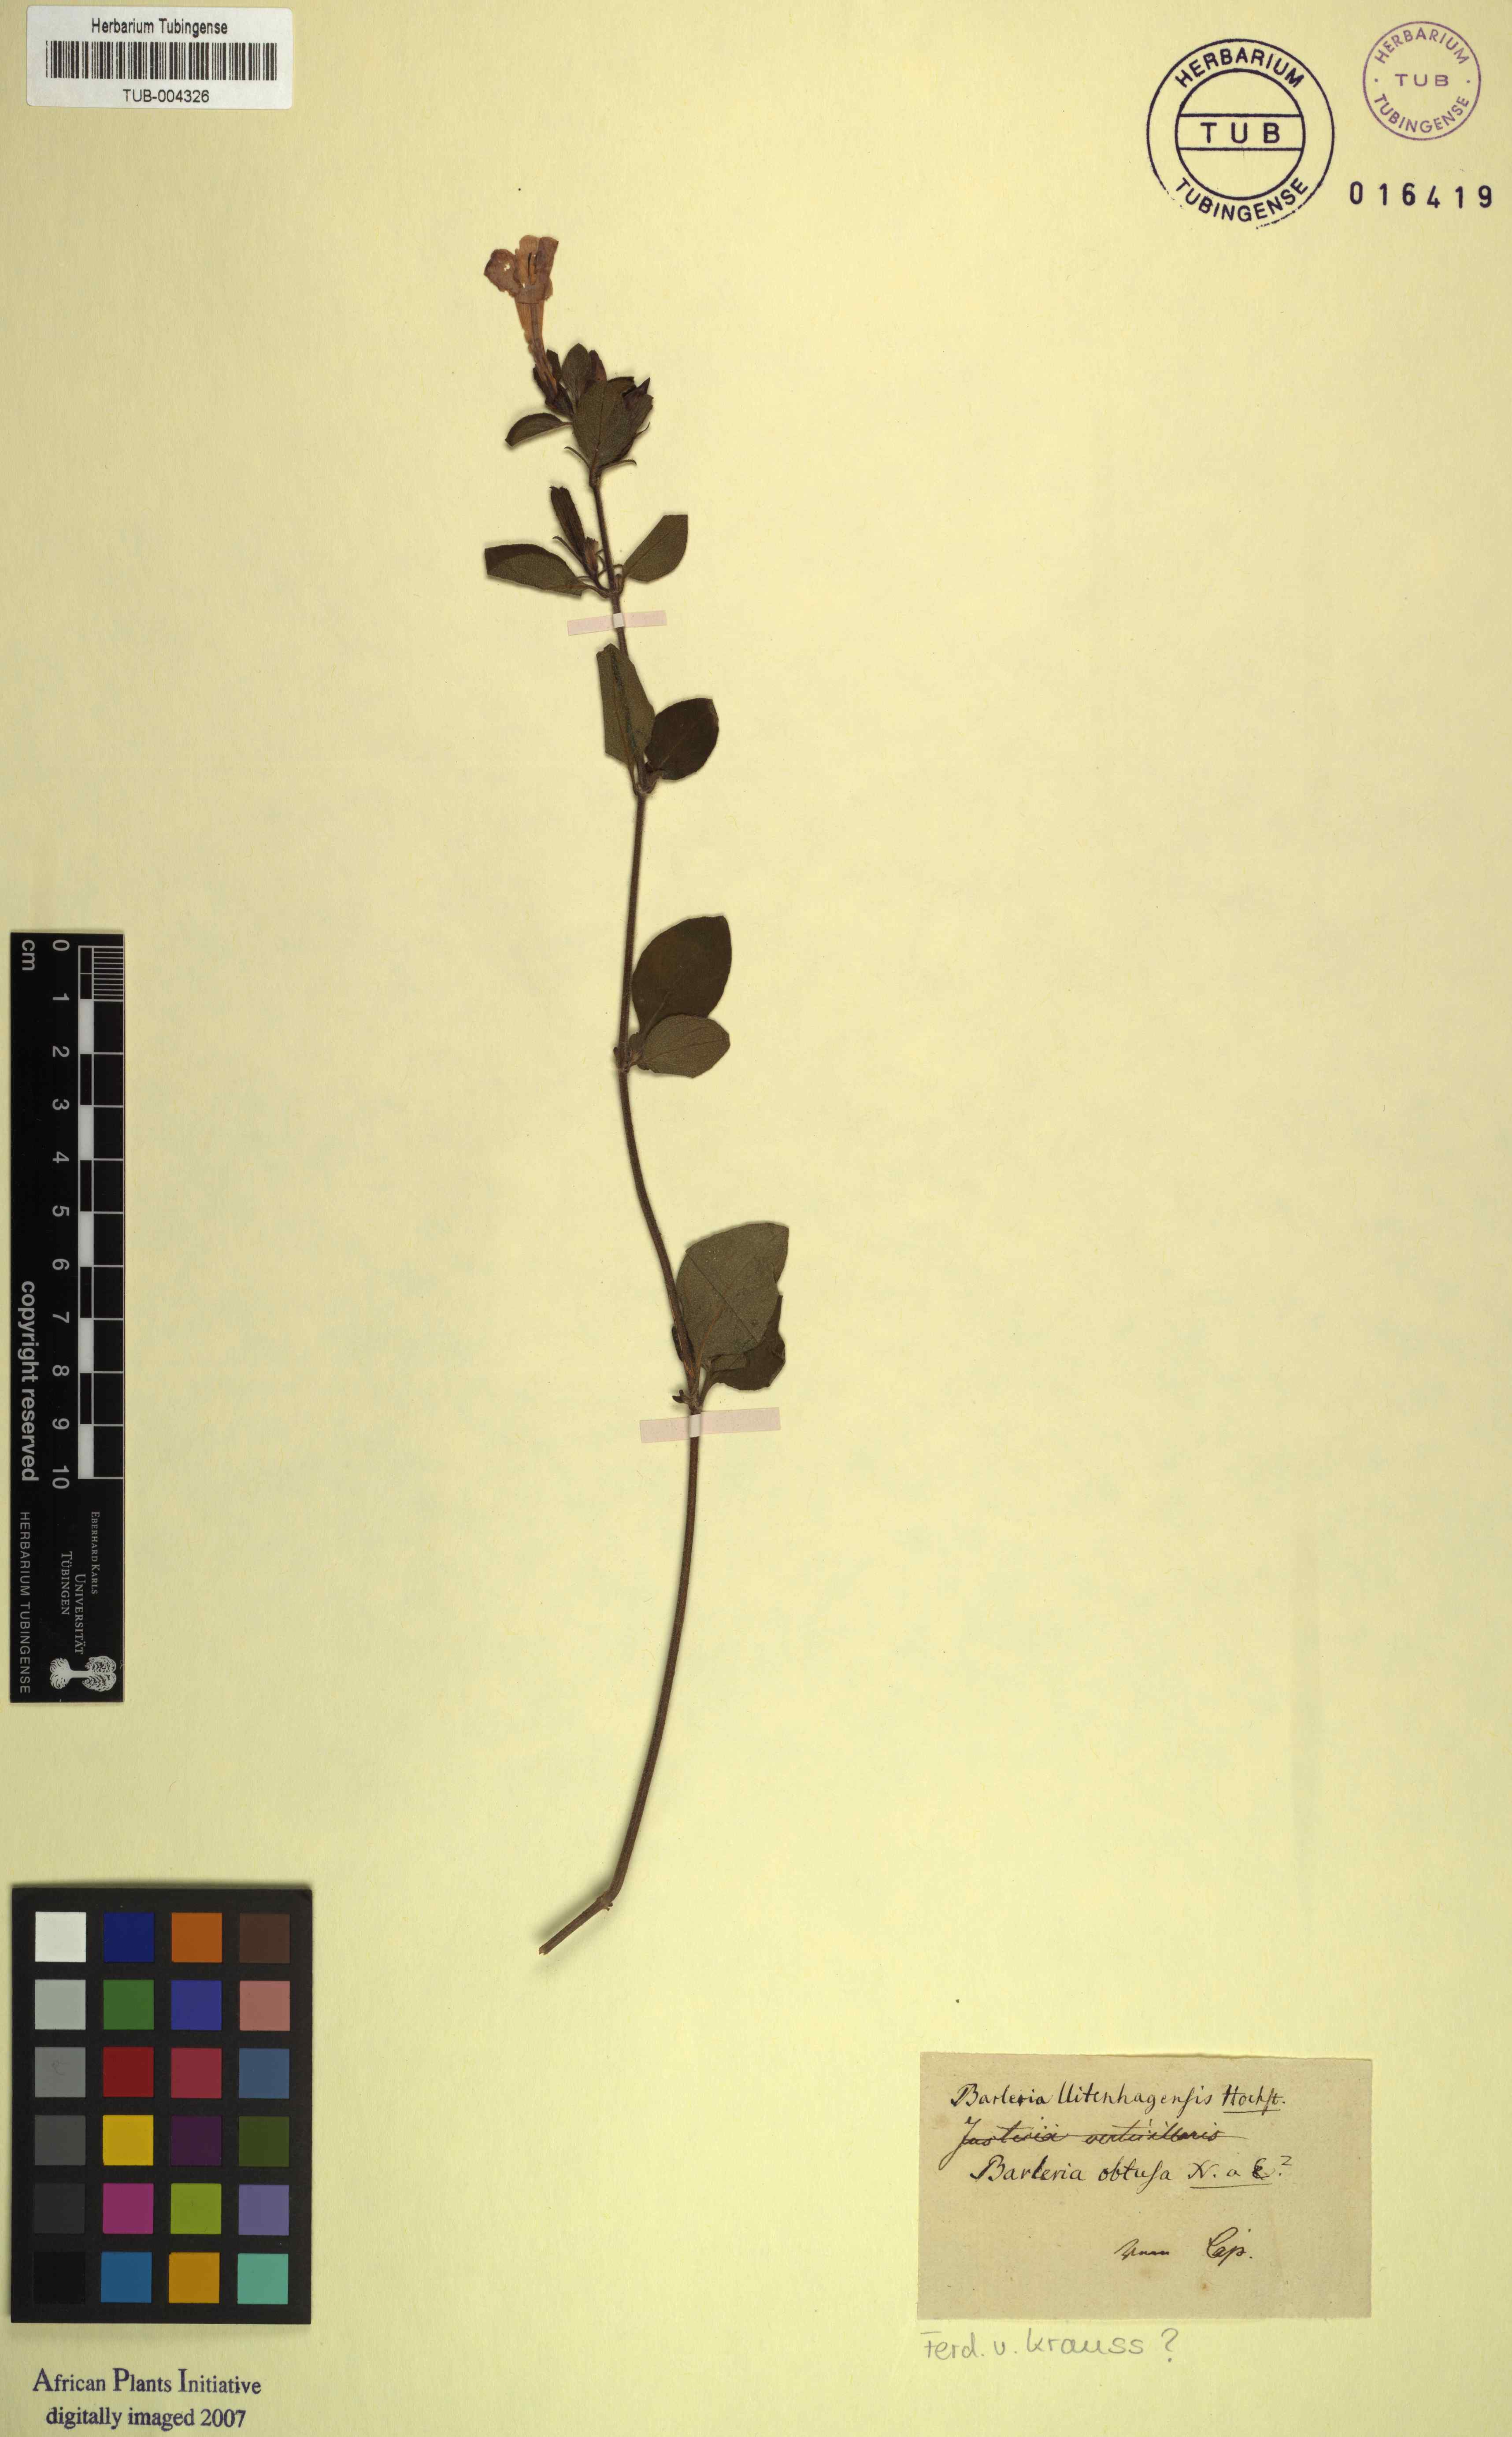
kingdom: Plantae
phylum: Tracheophyta
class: Magnoliopsida
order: Lamiales
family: Acanthaceae
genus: Barleria
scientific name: Barleria obtusa
